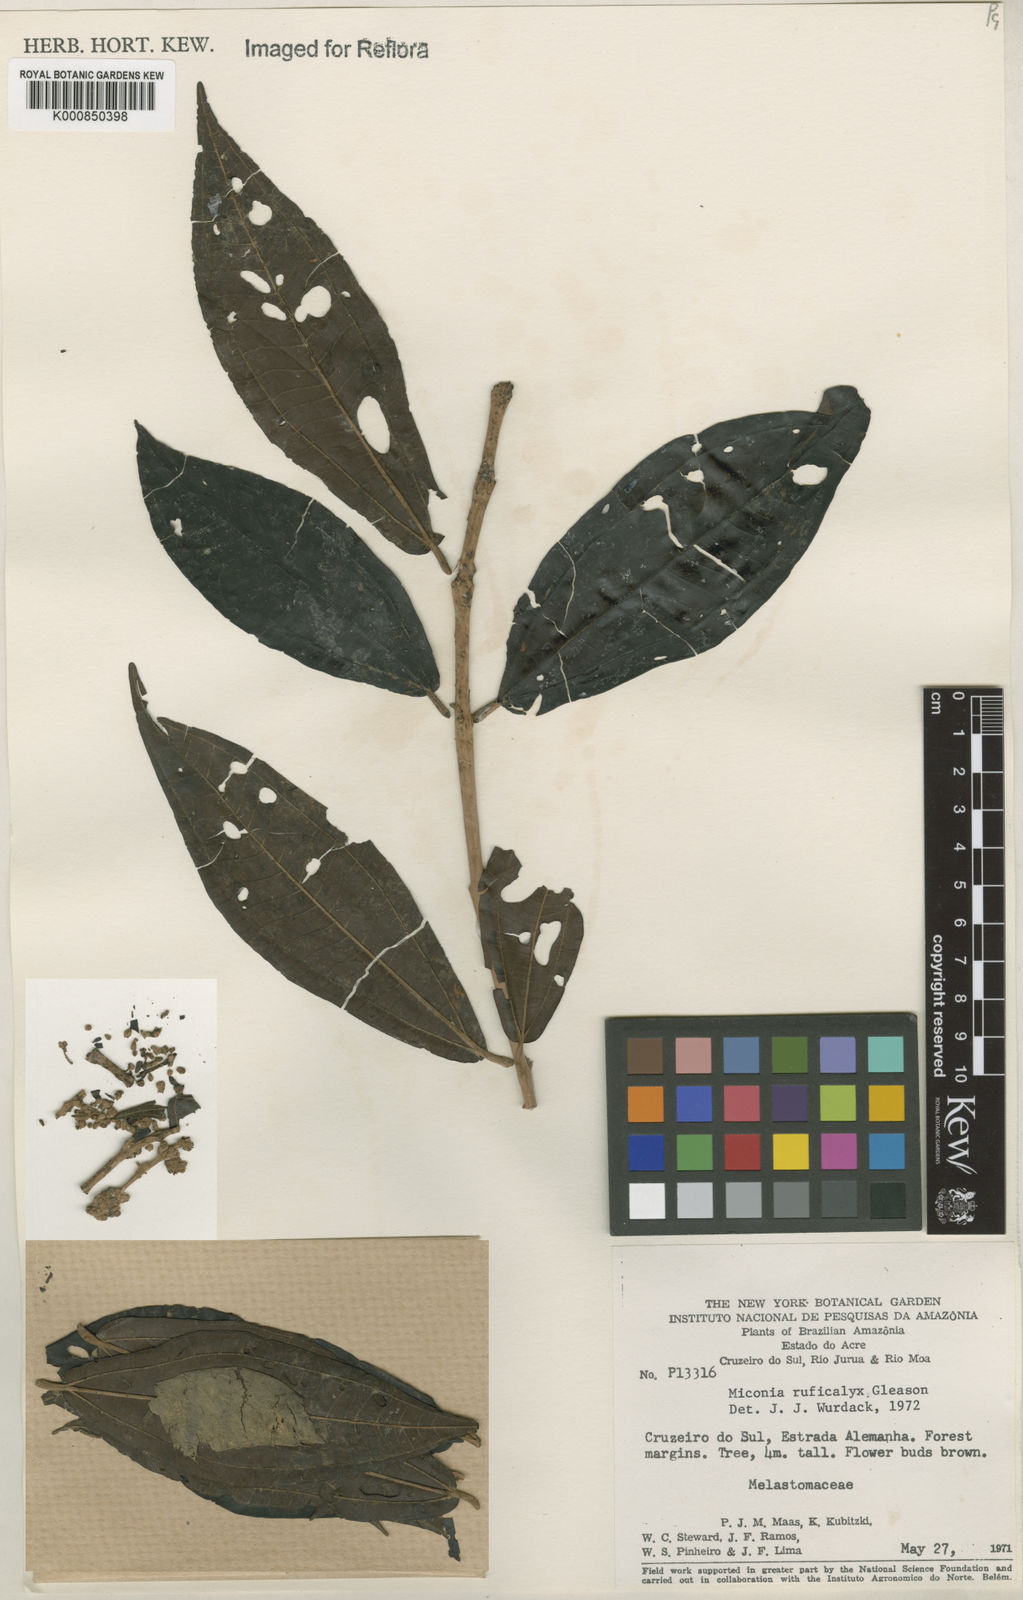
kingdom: Plantae
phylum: Tracheophyta
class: Magnoliopsida
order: Myrtales
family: Melastomataceae
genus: Miconia
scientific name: Miconia ruficalyx
